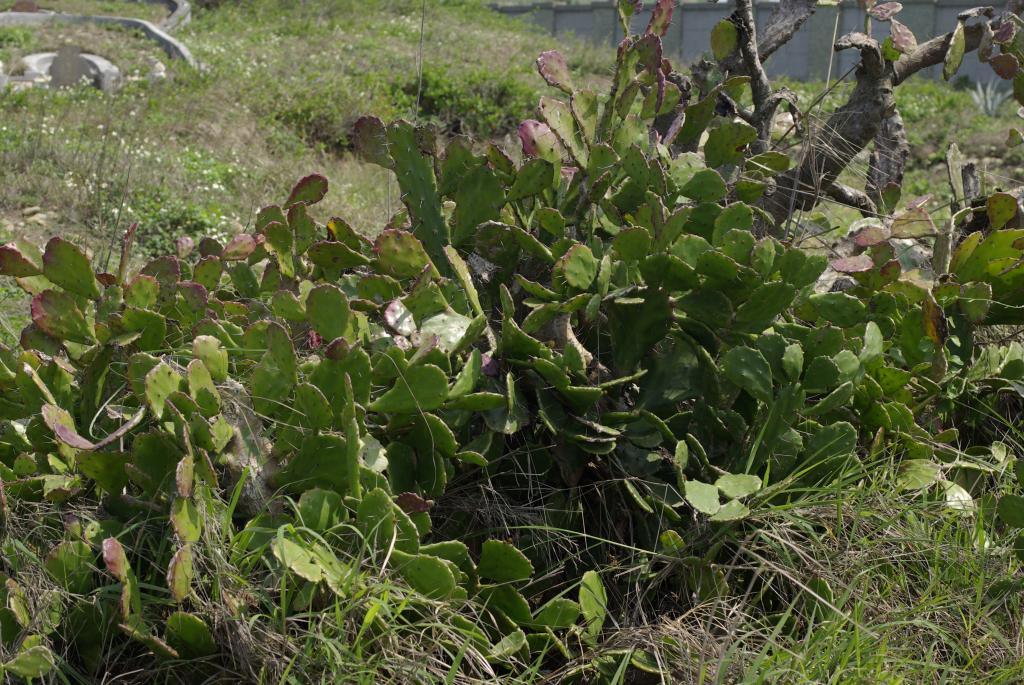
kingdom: Plantae
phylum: Tracheophyta
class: Magnoliopsida
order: Caryophyllales
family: Cactaceae
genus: Opuntia
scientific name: Opuntia dillenii
